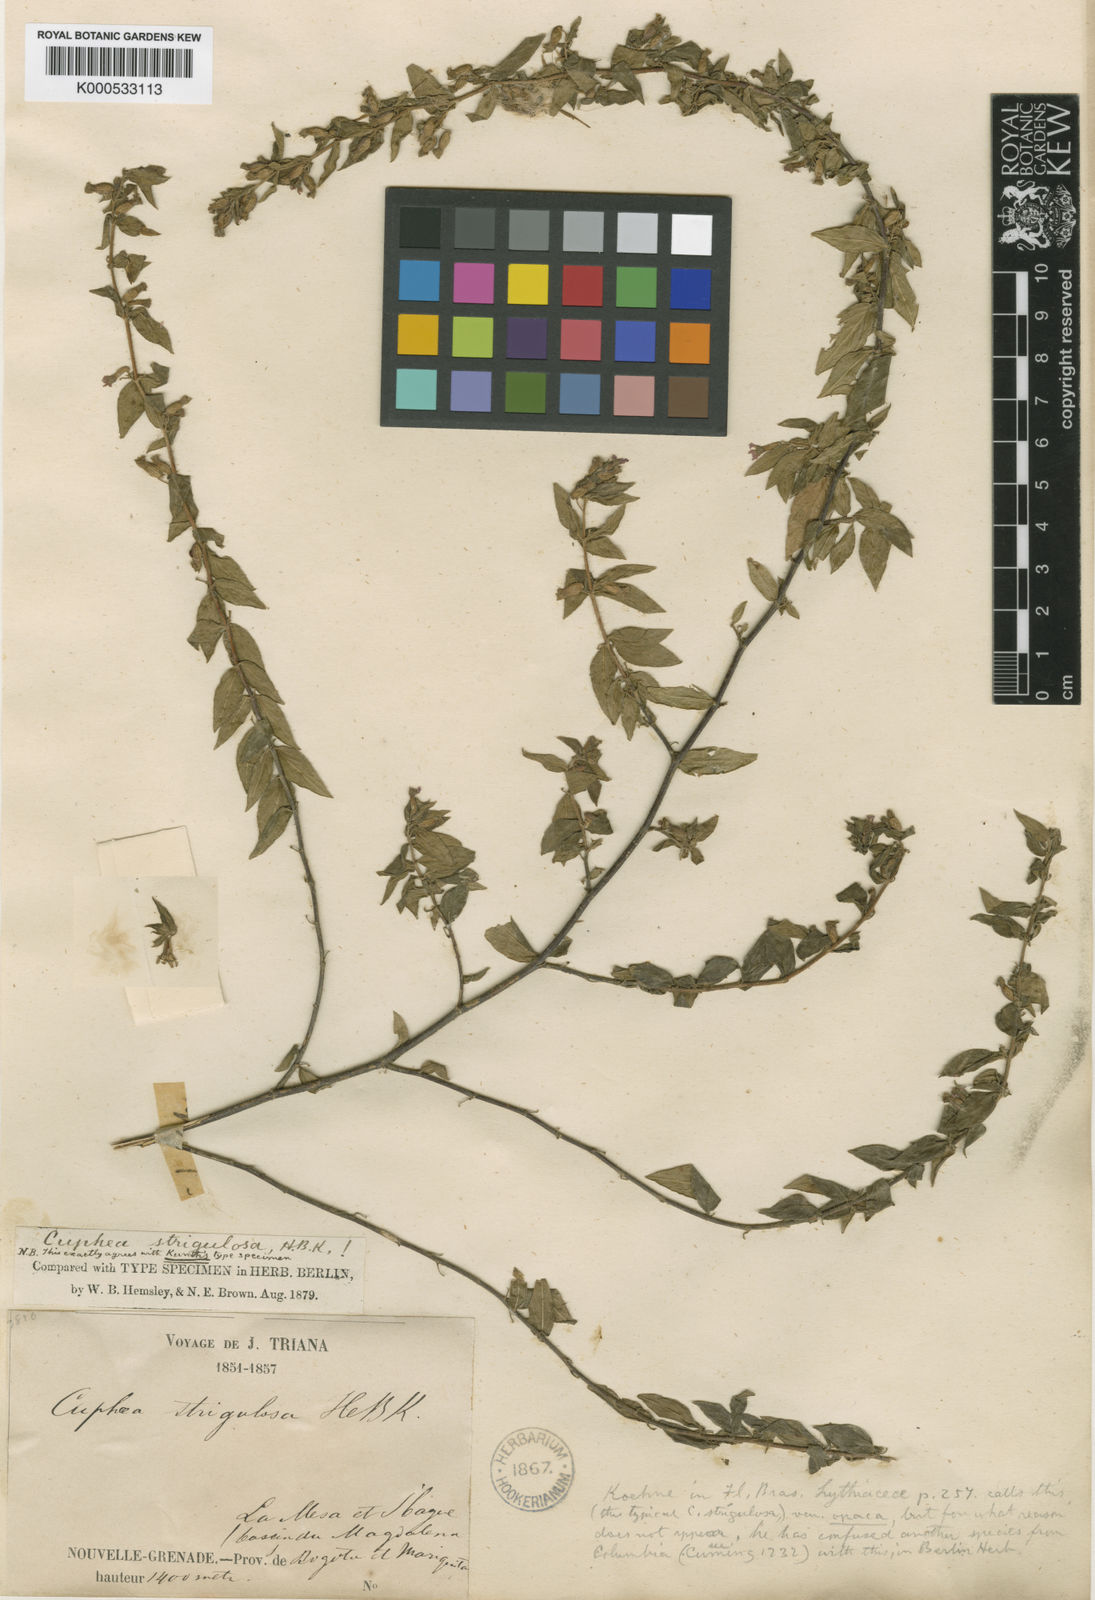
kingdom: Plantae
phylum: Tracheophyta
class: Magnoliopsida
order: Myrtales
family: Lythraceae
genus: Cuphea
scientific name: Cuphea strigulosa
